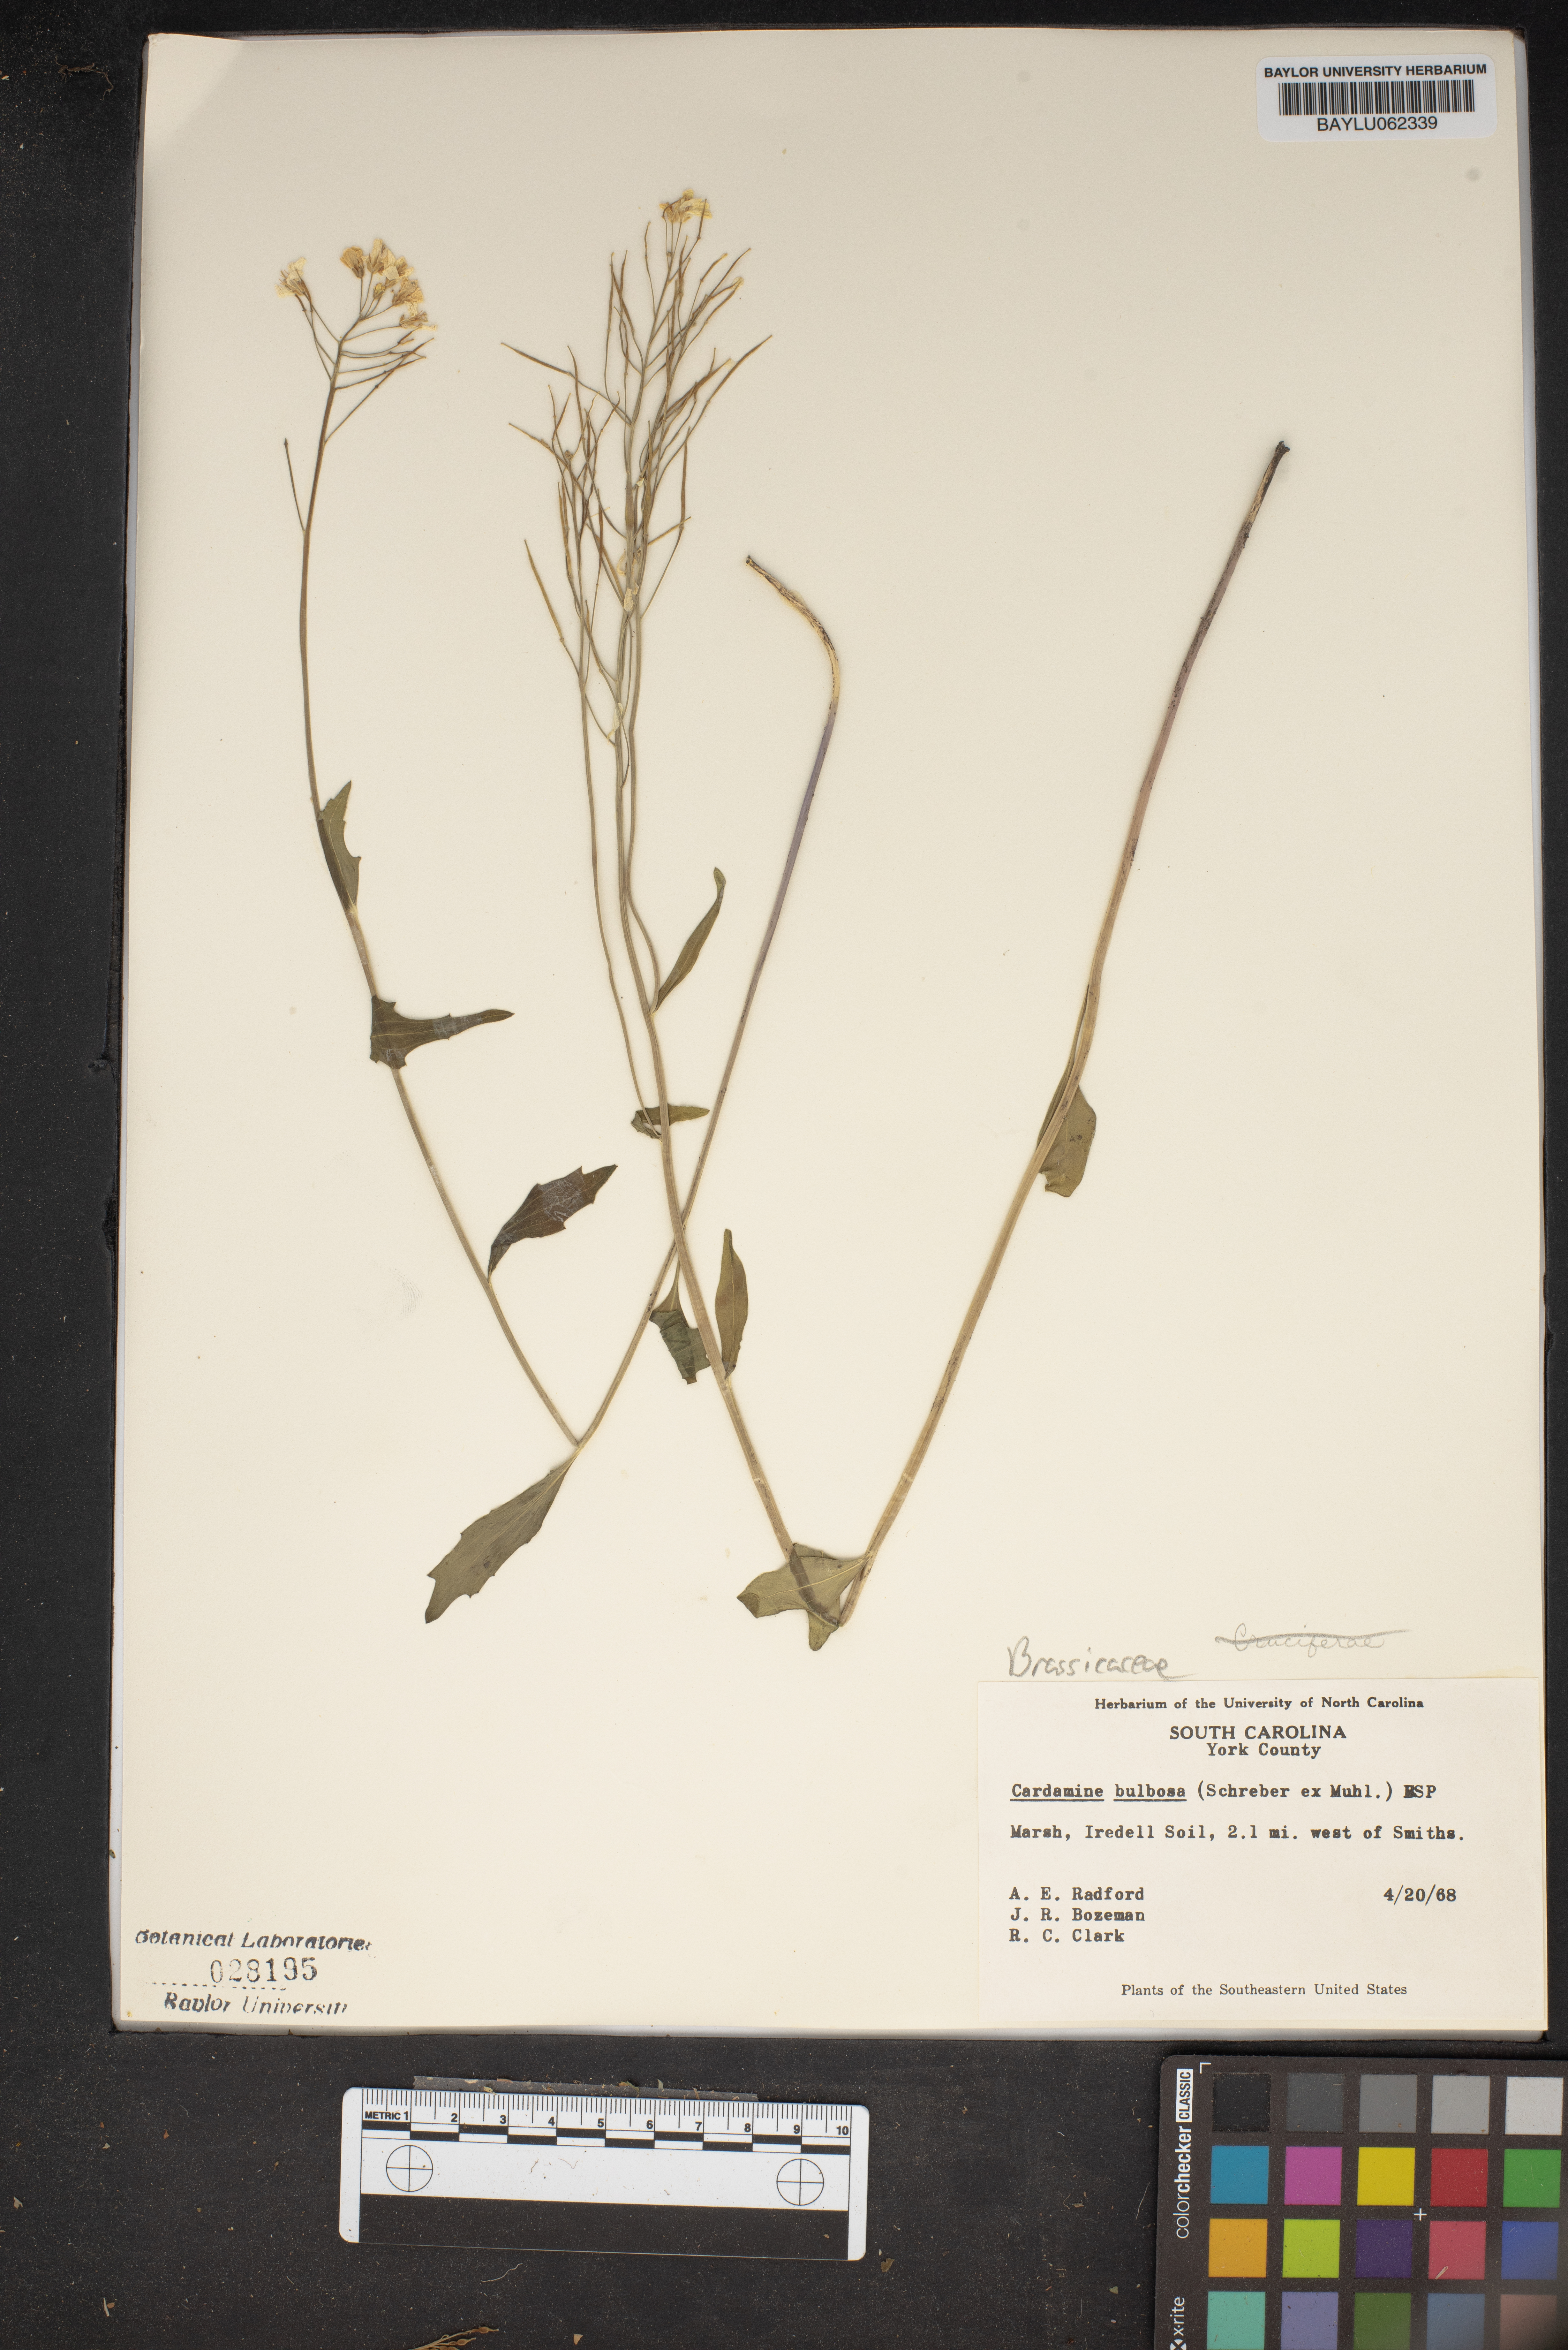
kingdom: Plantae
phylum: Tracheophyta
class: Magnoliopsida
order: Brassicales
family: Brassicaceae
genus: Cardamine
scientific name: Cardamine bulbosa
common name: Spring cress
